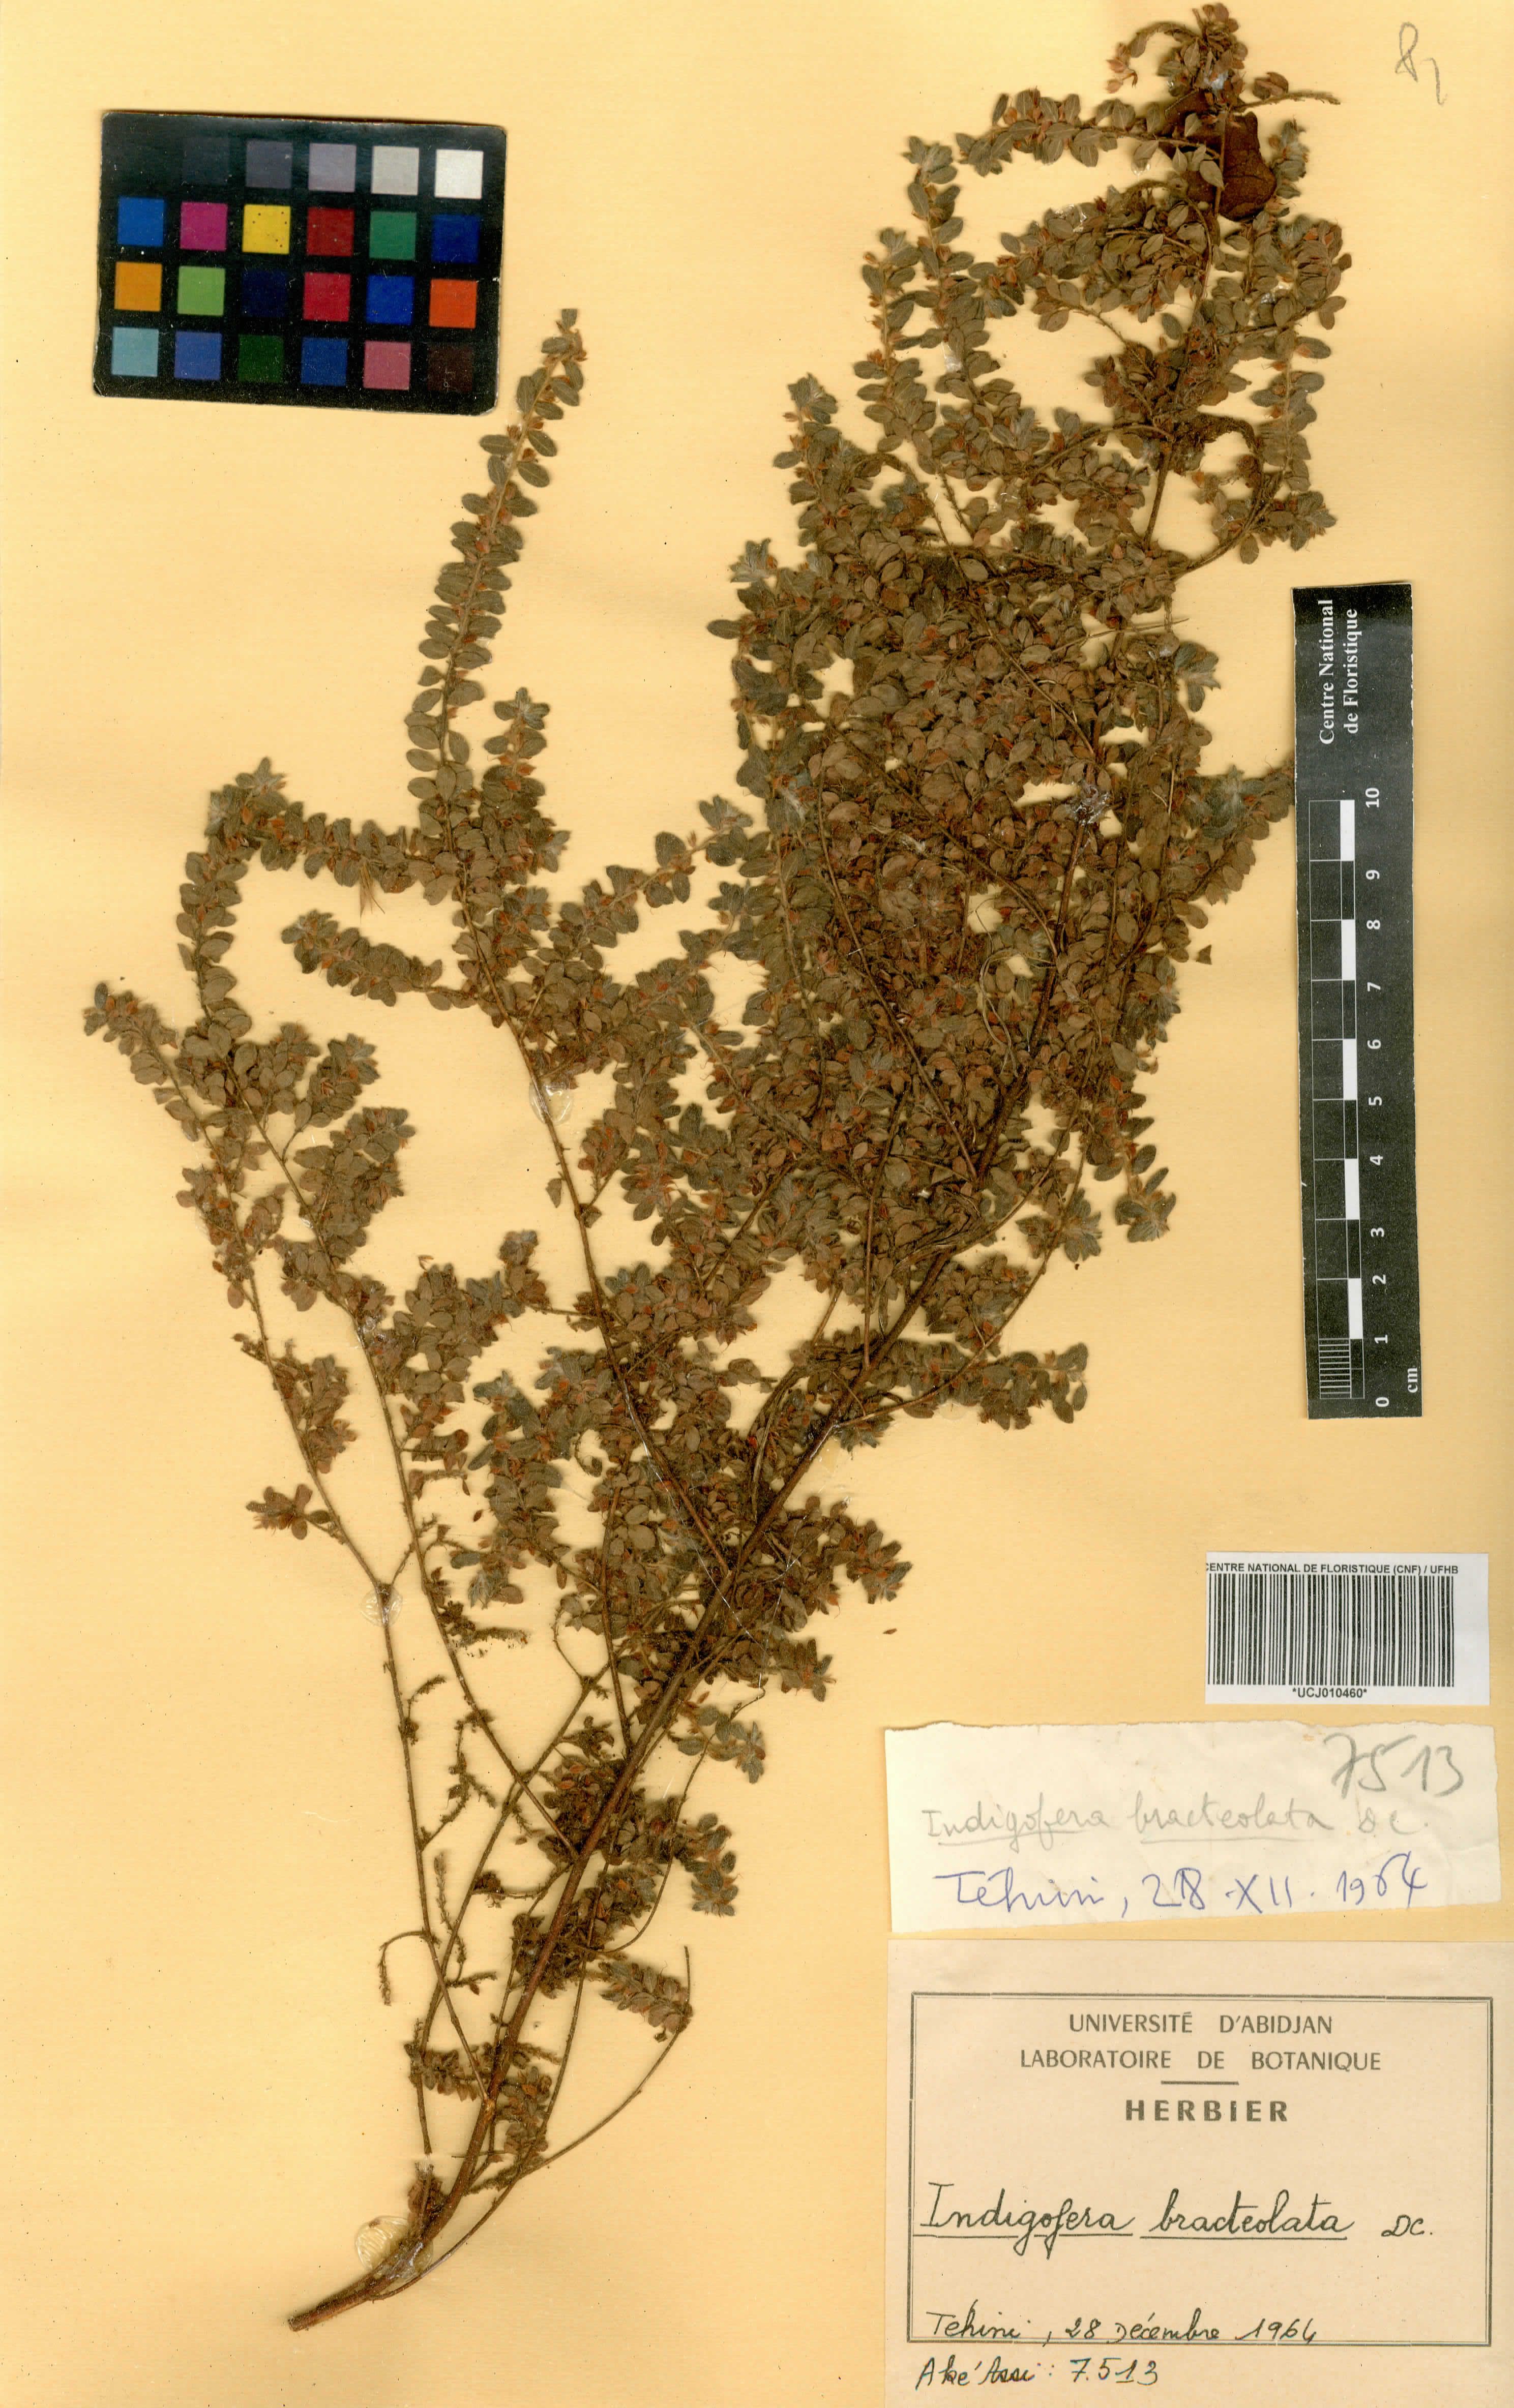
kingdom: Plantae
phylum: Tracheophyta
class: Magnoliopsida
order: Fabales
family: Fabaceae
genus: Indigofera
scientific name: Indigofera bracteolata
